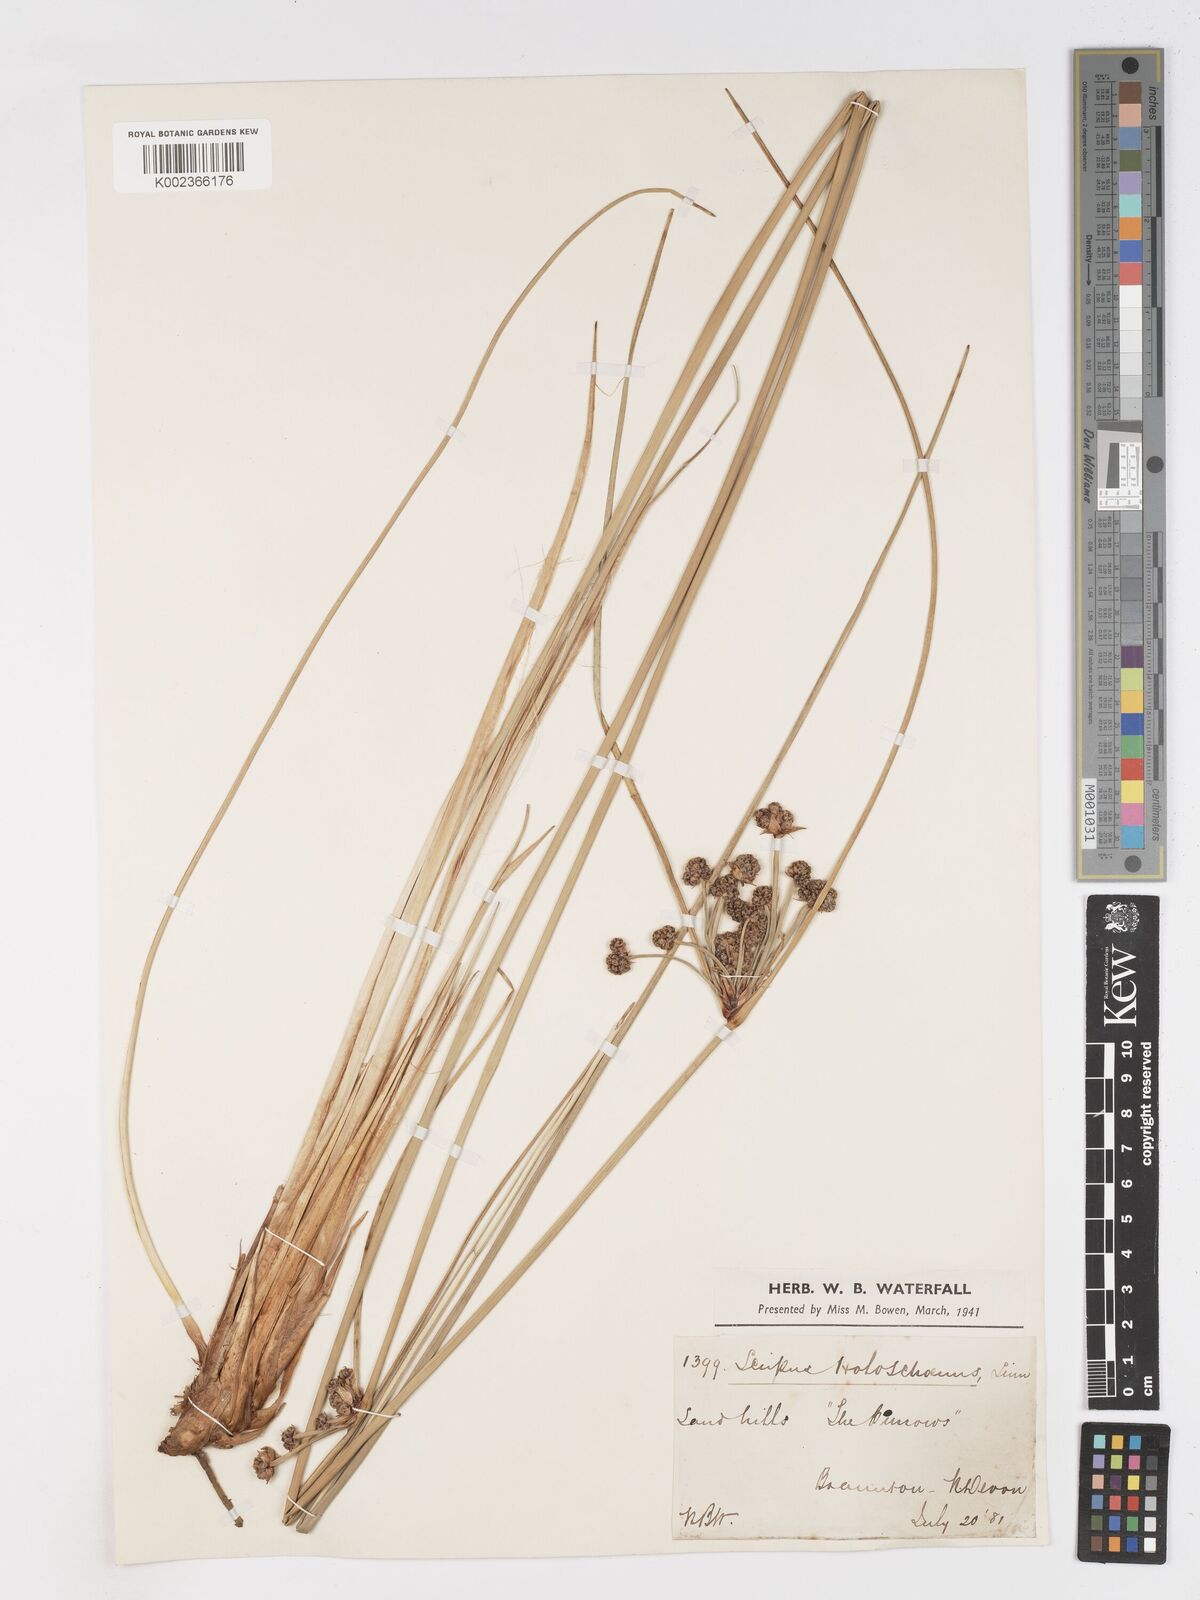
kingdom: Plantae
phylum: Tracheophyta
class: Liliopsida
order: Poales
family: Cyperaceae
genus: Scirpoides
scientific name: Scirpoides holoschoenus
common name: Round-headed club-rush
